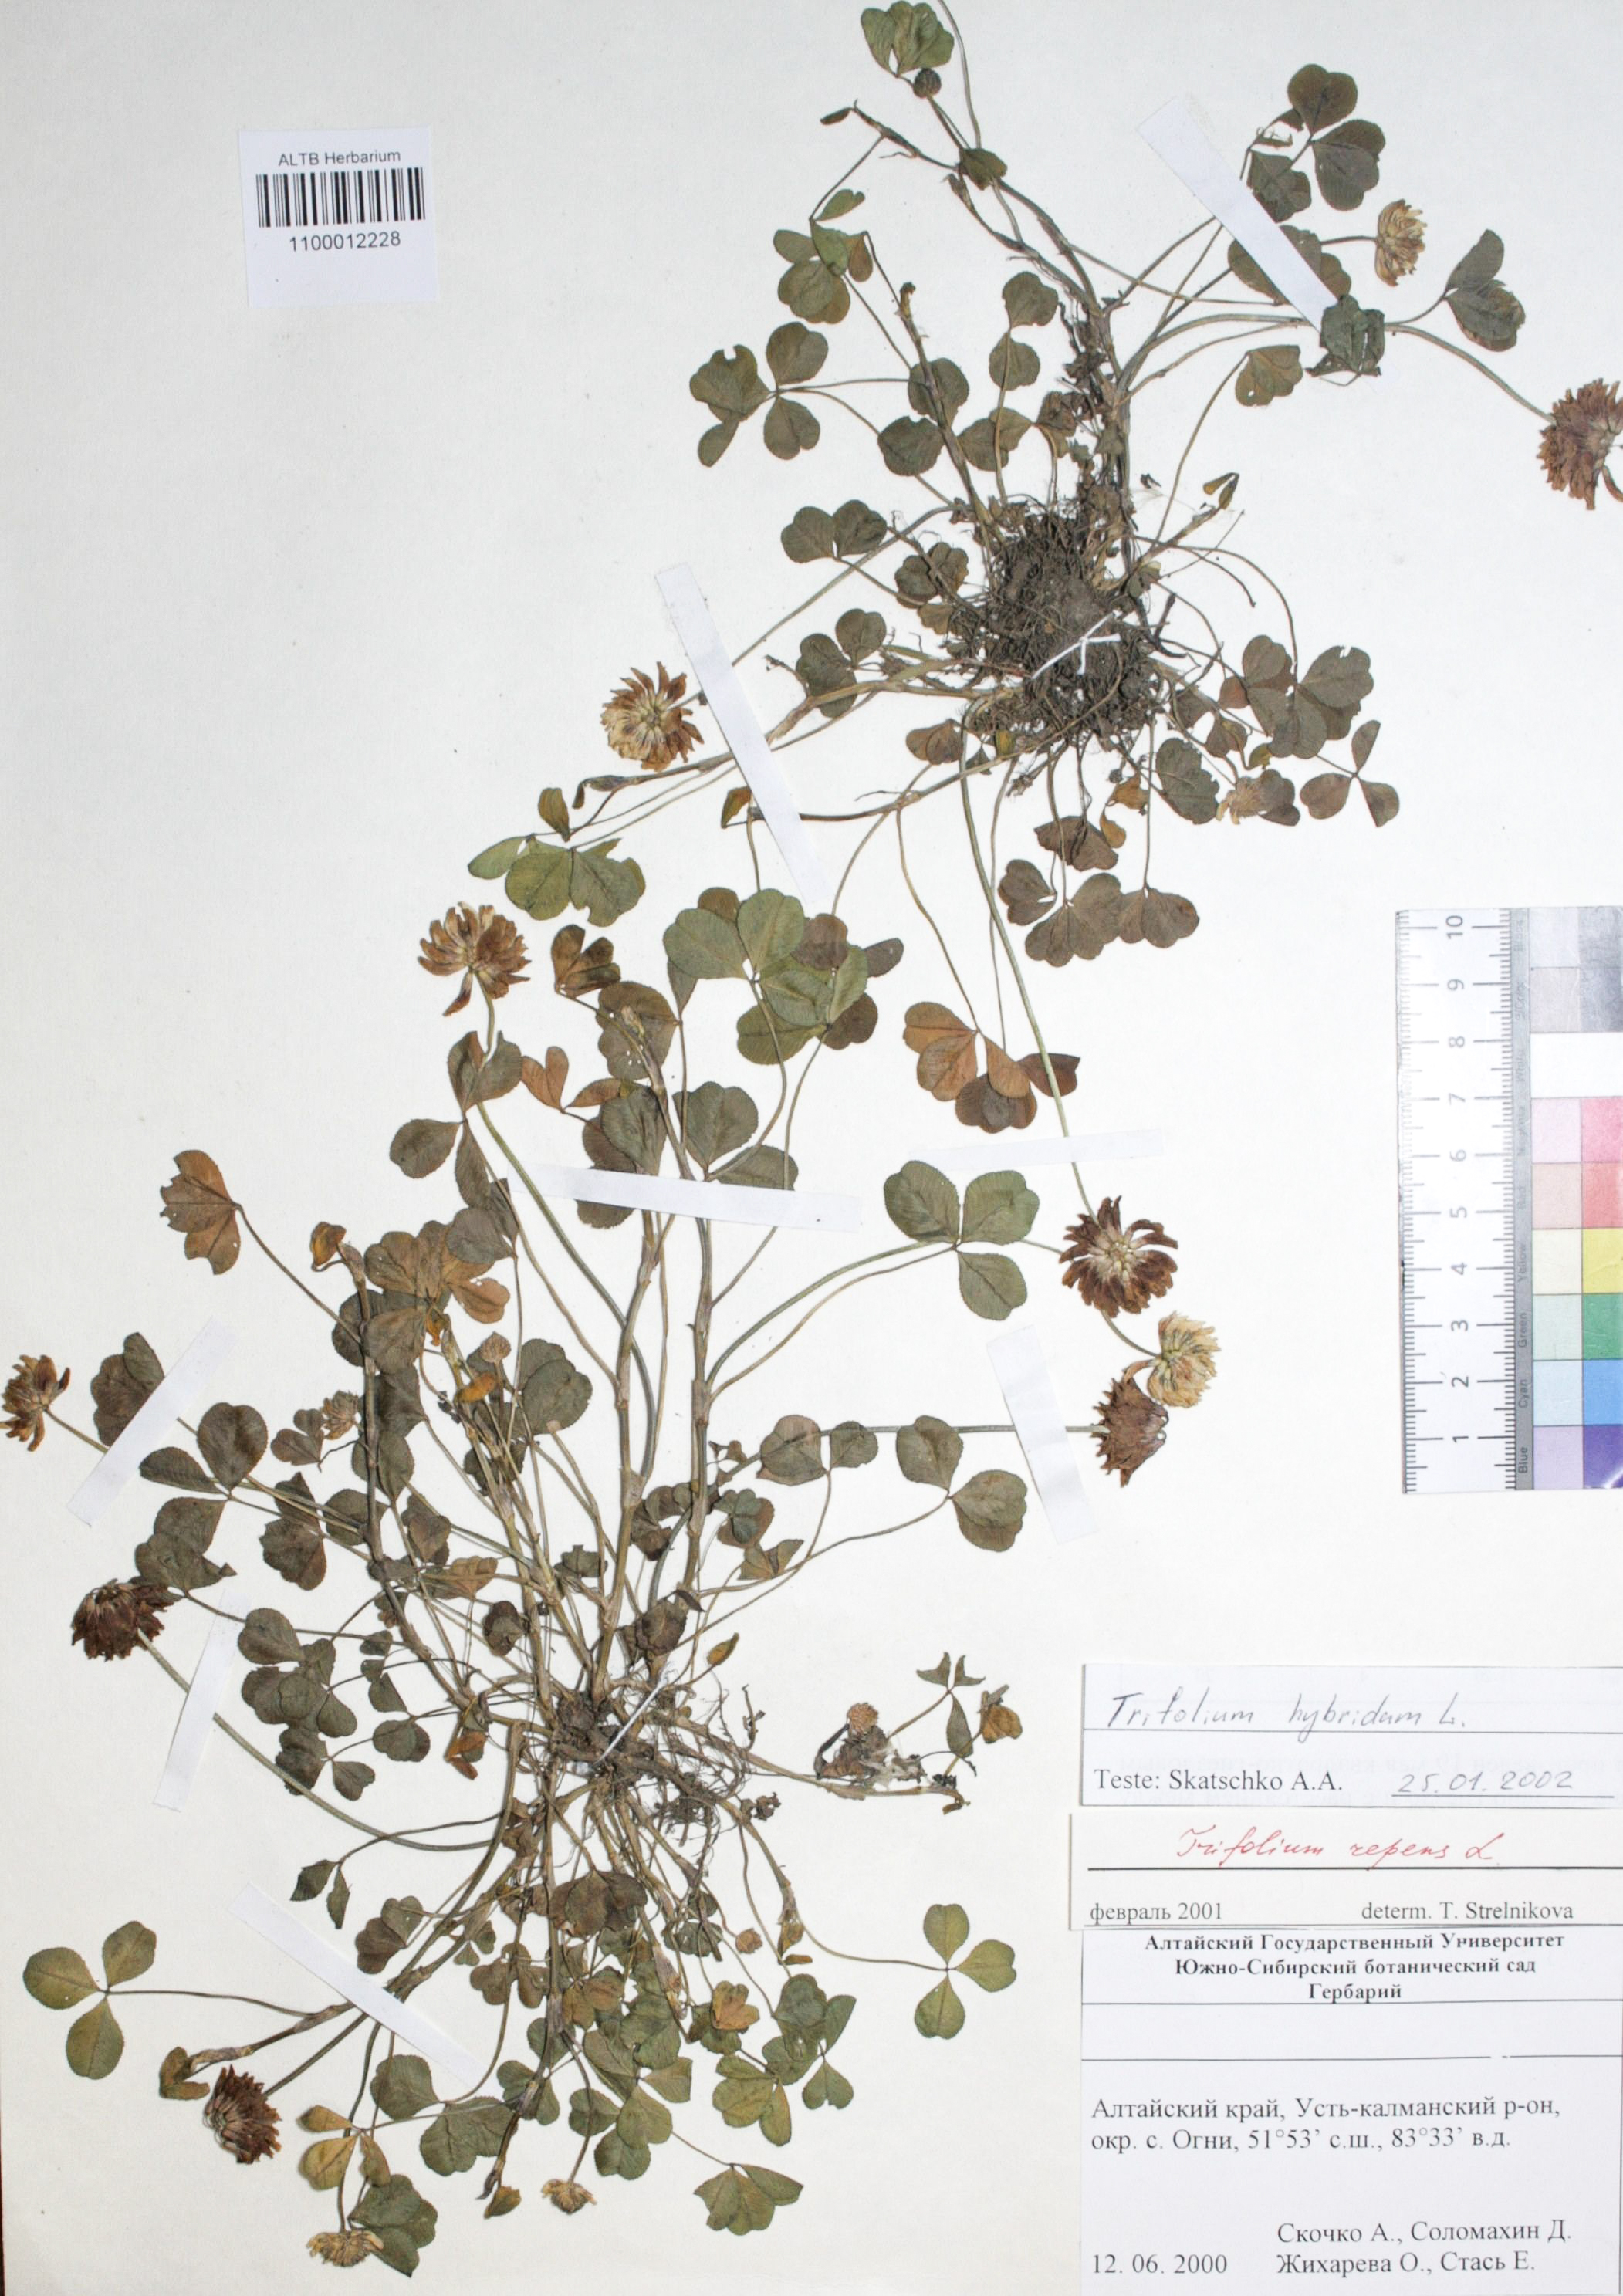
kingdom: Plantae
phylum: Tracheophyta
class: Magnoliopsida
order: Fabales
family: Fabaceae
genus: Trifolium
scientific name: Trifolium repens
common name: White clover
